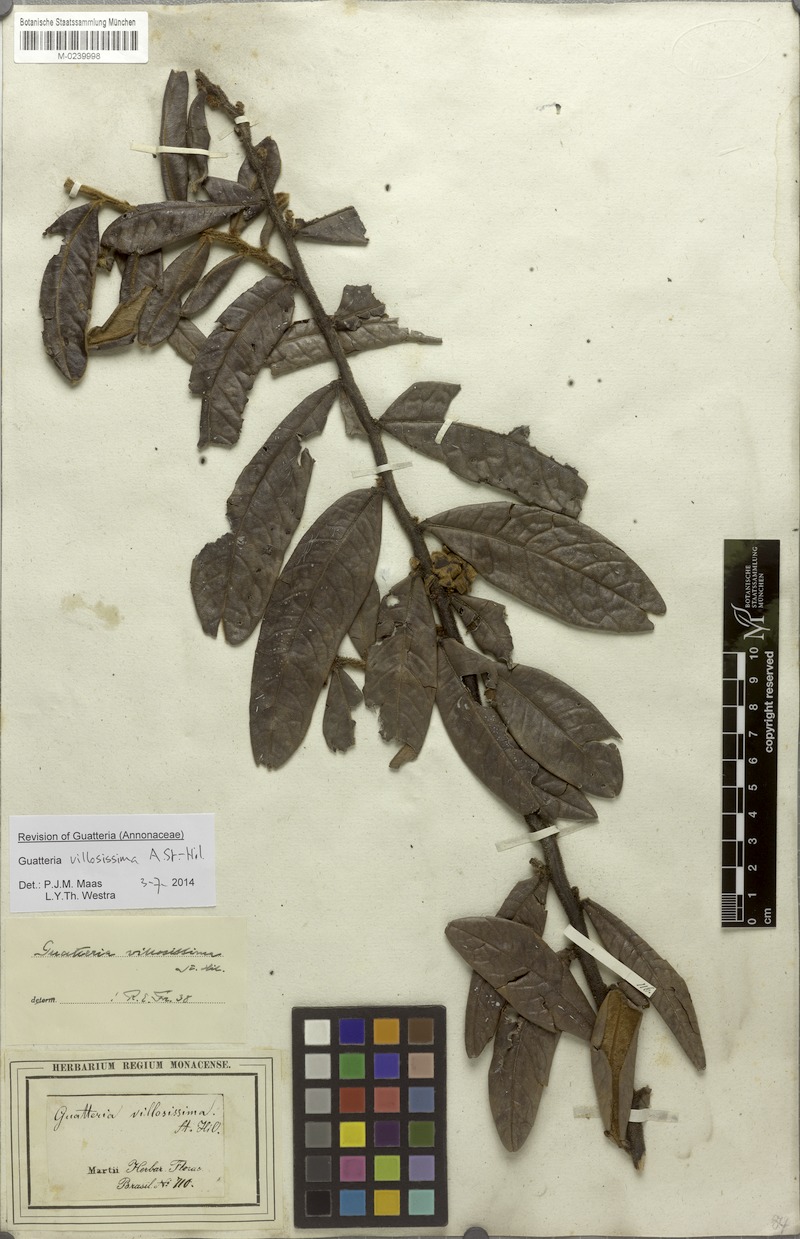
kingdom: Plantae
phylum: Tracheophyta
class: Magnoliopsida
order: Magnoliales
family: Annonaceae
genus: Guatteria
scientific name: Guatteria villosissima
